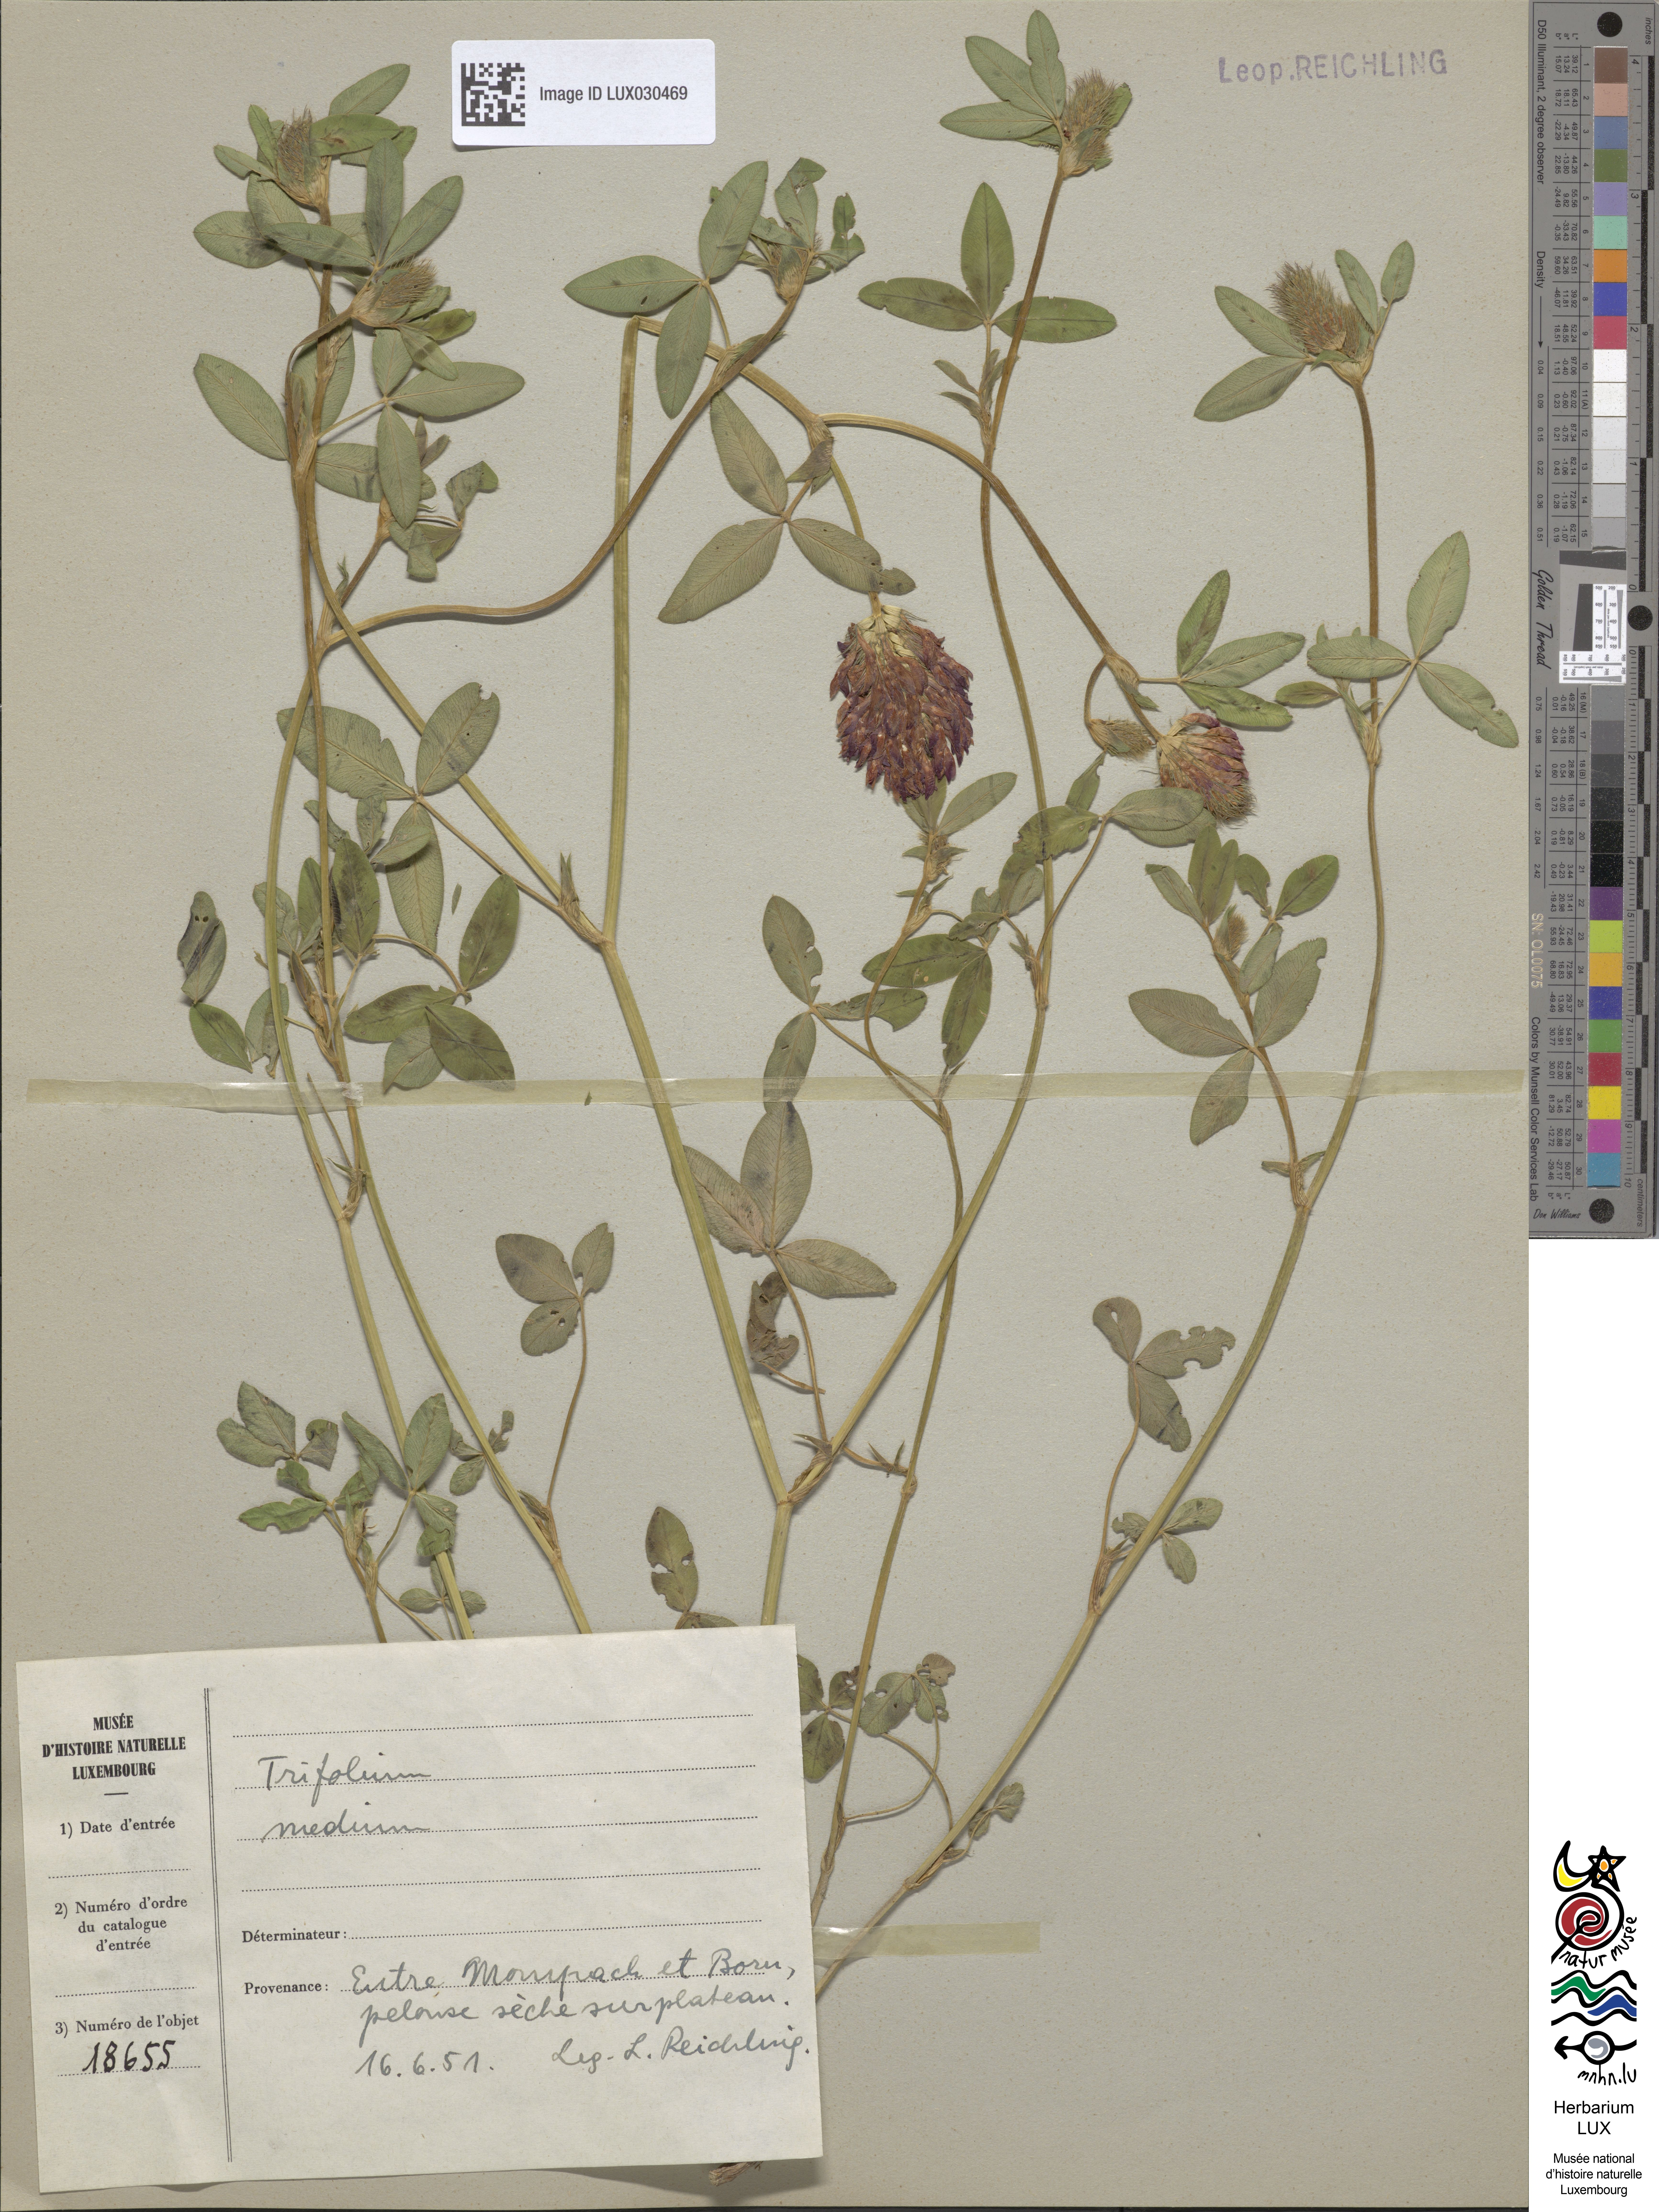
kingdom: Plantae
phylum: Tracheophyta
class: Magnoliopsida
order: Fabales
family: Fabaceae
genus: Trifolium
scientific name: Trifolium medium
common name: Zigzag clover
